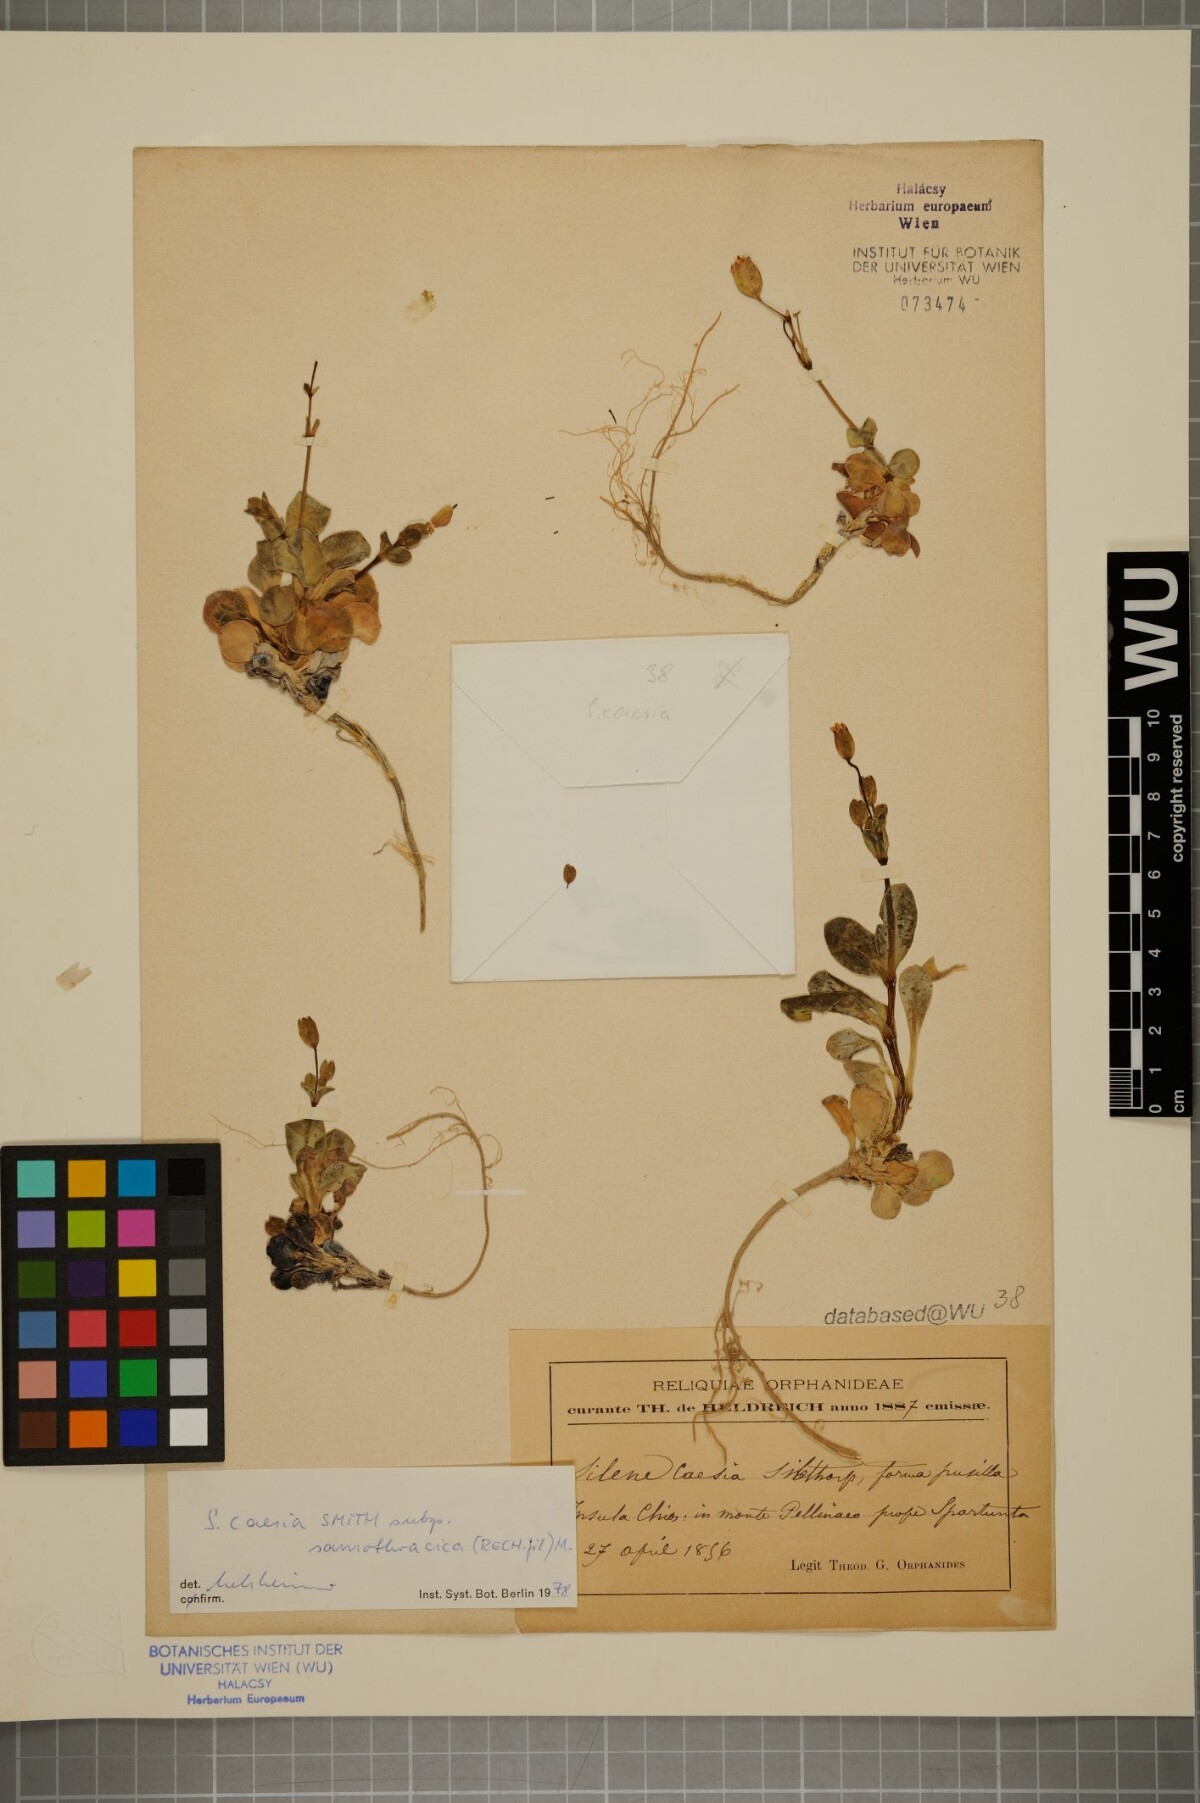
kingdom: Plantae
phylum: Tracheophyta
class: Magnoliopsida
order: Caryophyllales
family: Caryophyllaceae
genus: Silene
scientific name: Silene caesia
